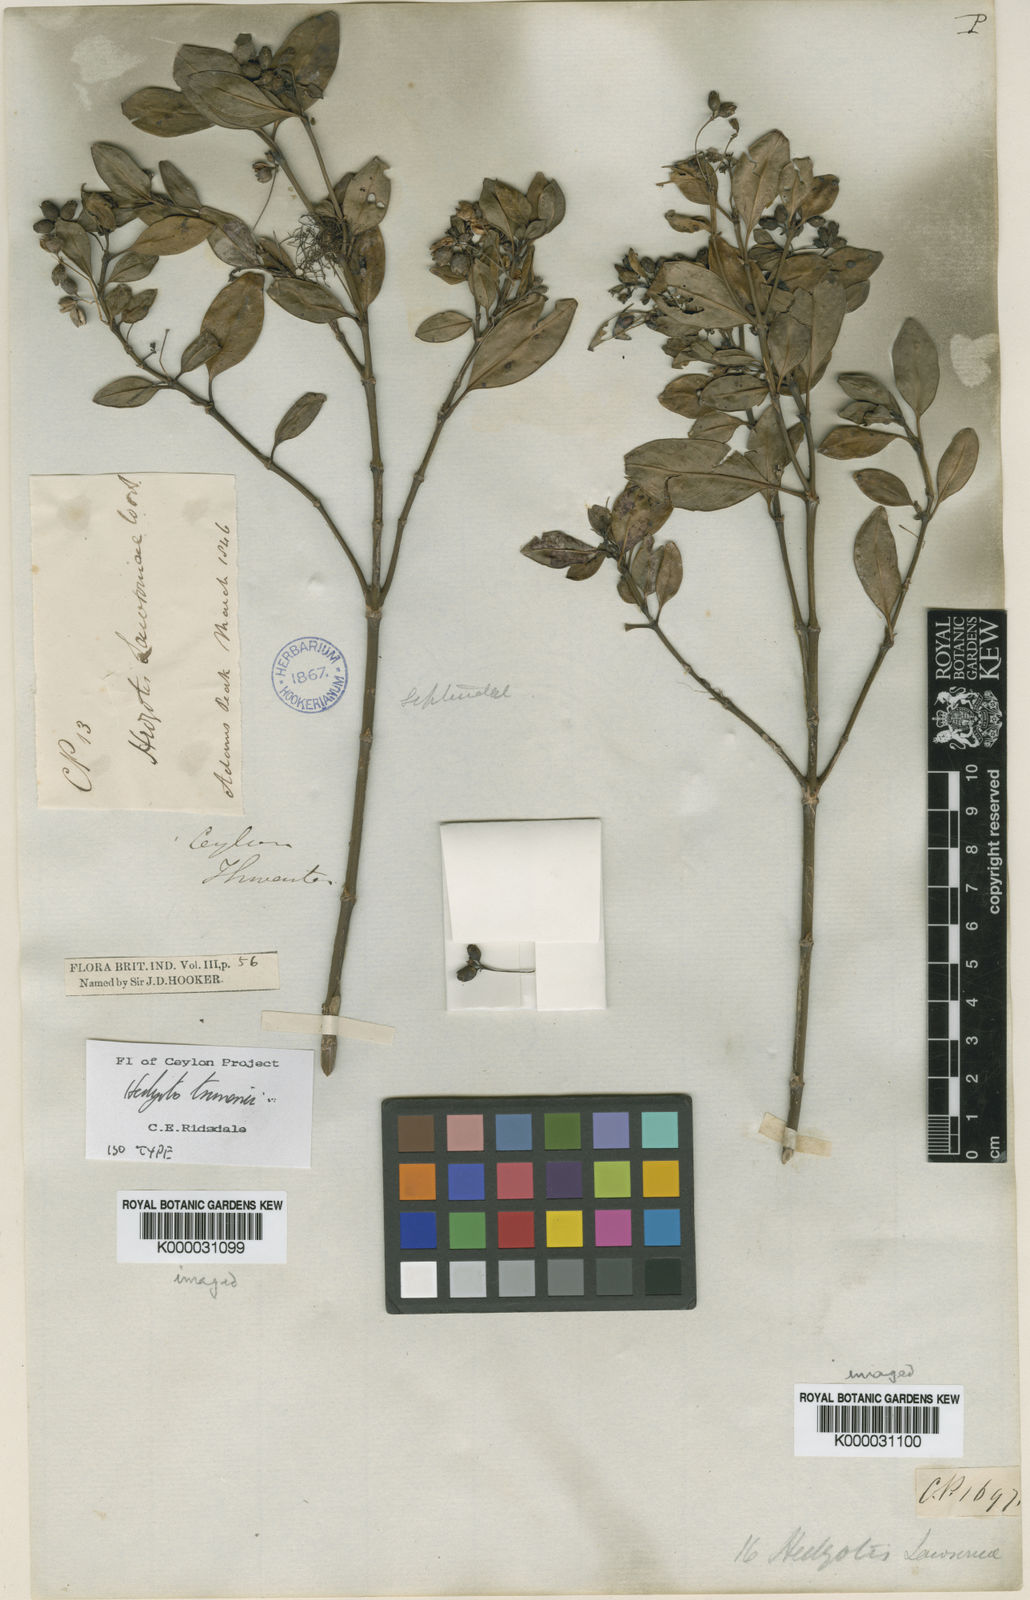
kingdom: Plantae
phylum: Tracheophyta
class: Magnoliopsida
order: Gentianales
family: Rubiaceae
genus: Hedyotis
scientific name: Hedyotis trimenii
